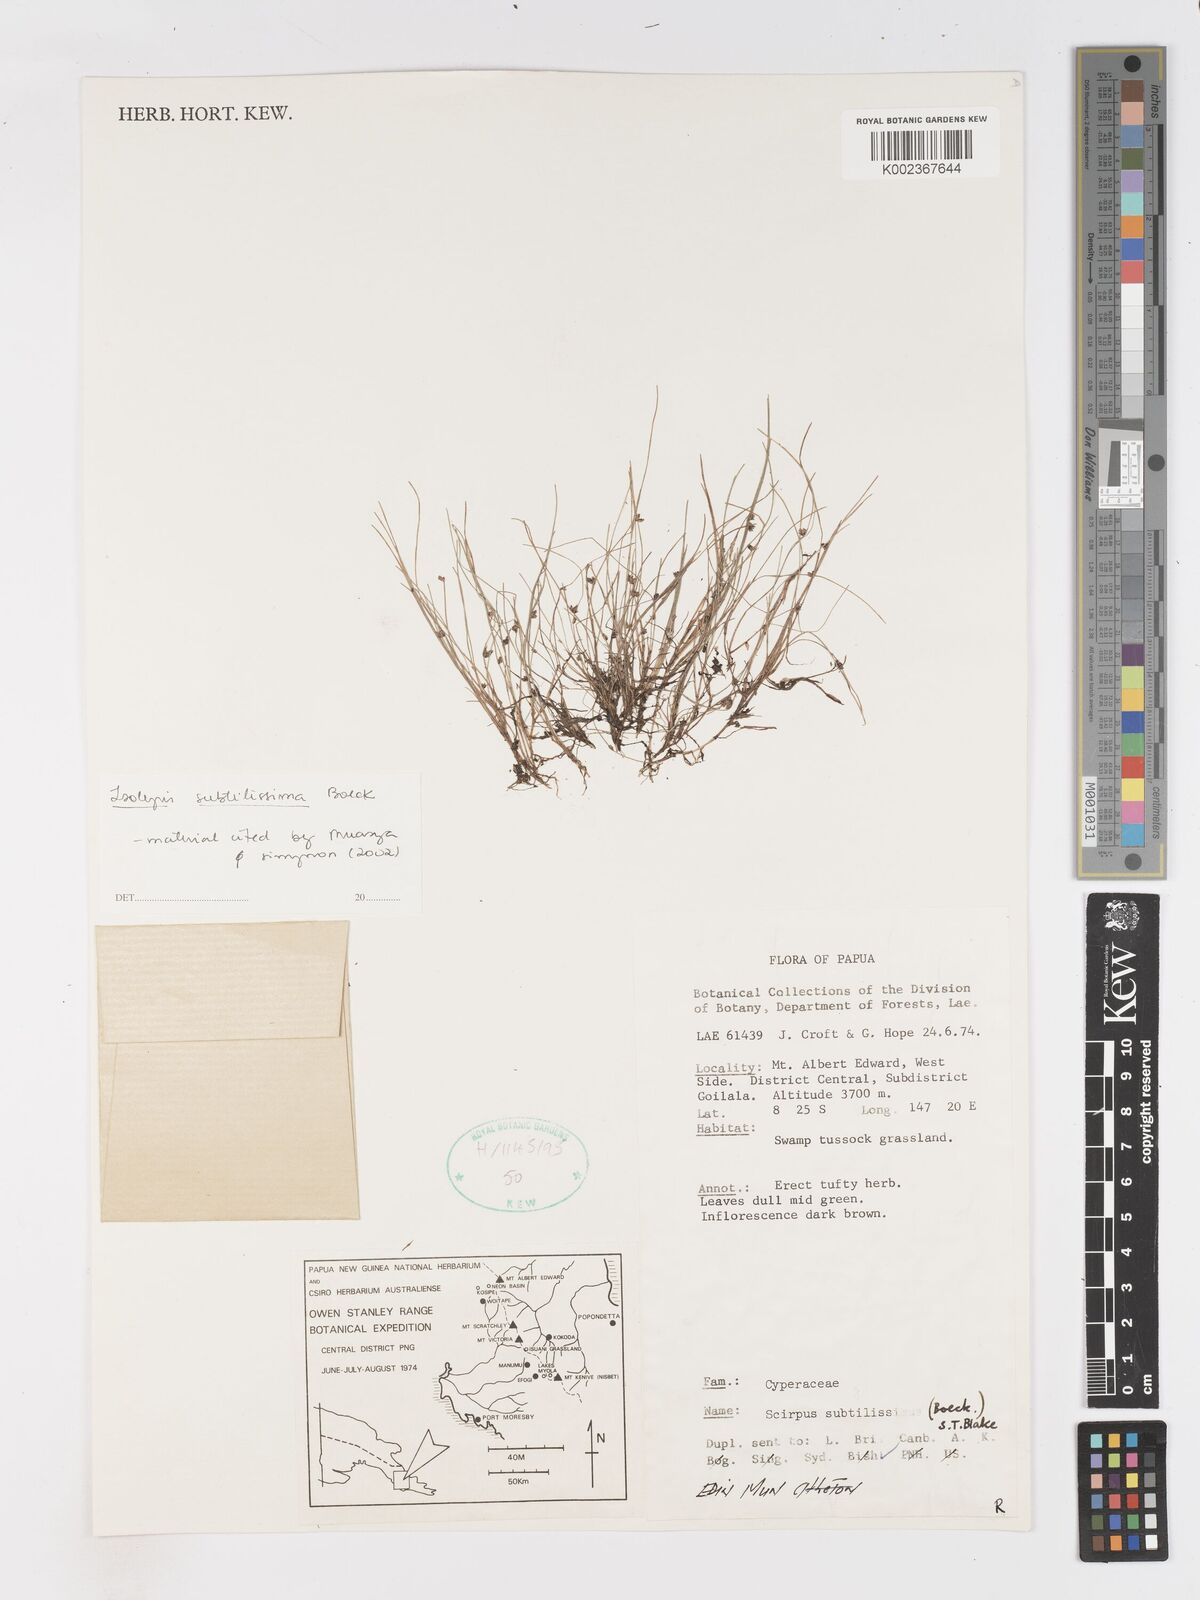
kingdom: Plantae
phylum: Tracheophyta
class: Liliopsida
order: Poales
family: Cyperaceae
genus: Isolepis
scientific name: Isolepis subtilissima
